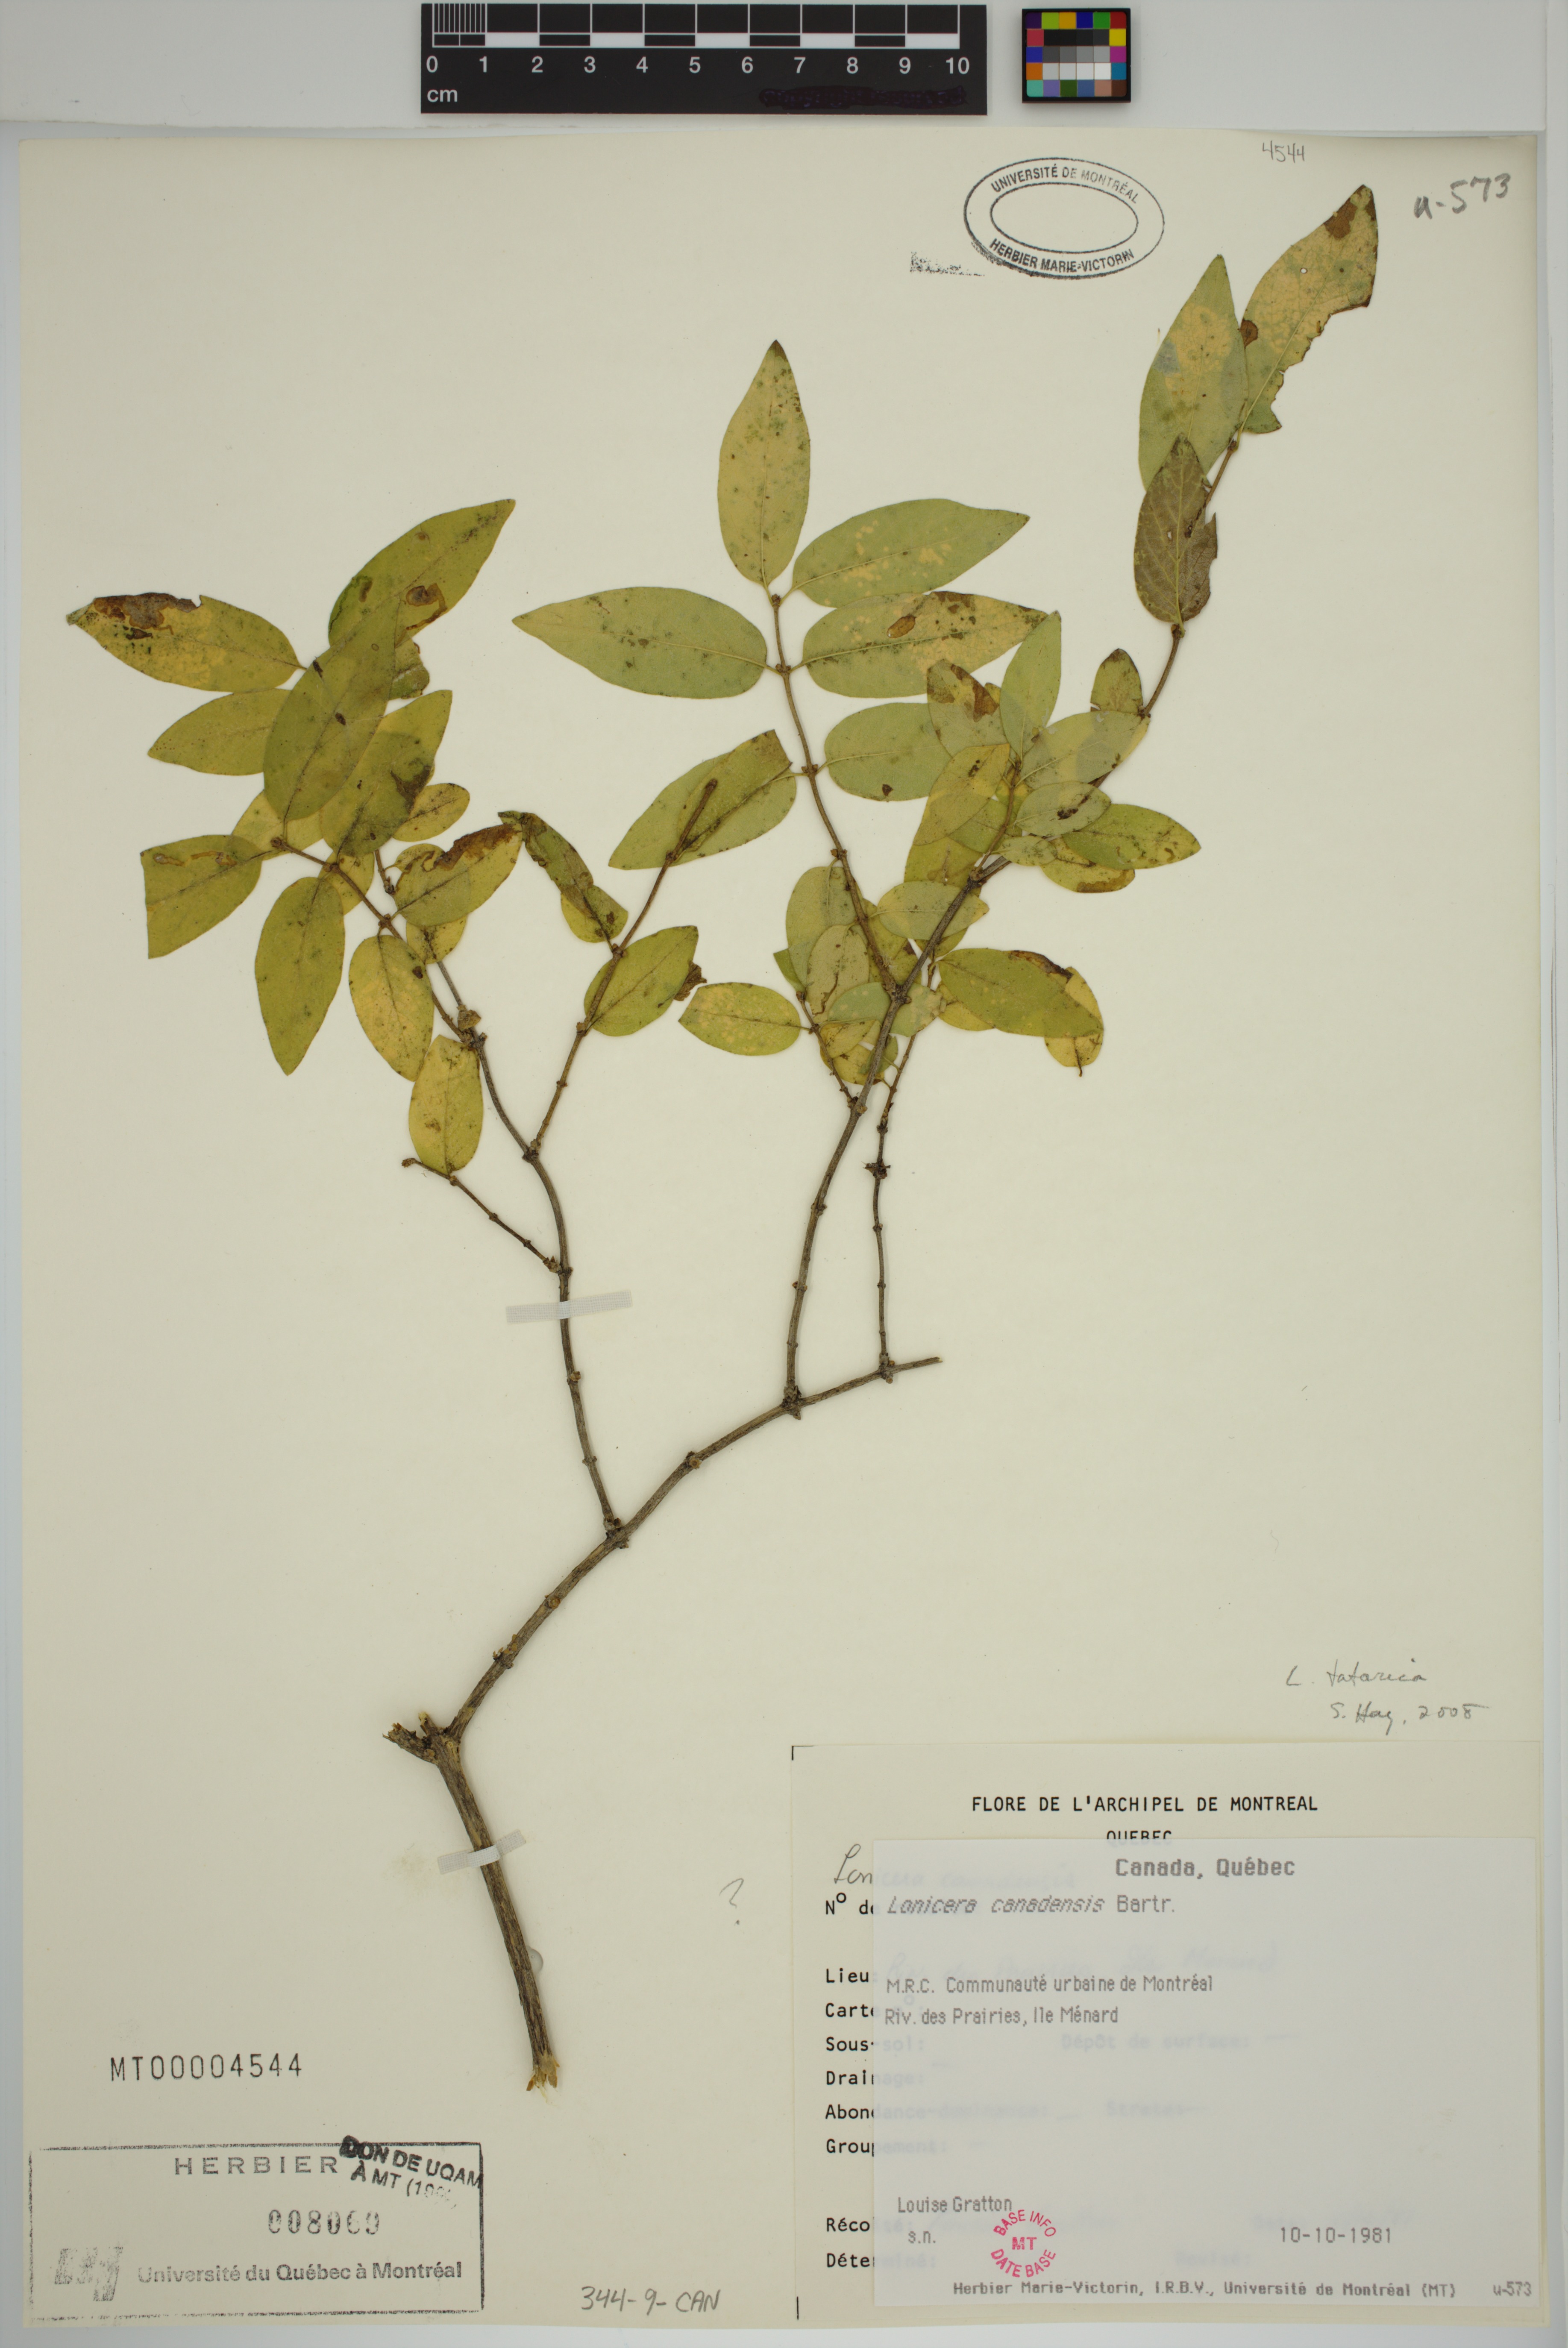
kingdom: Plantae
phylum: Tracheophyta
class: Magnoliopsida
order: Dipsacales
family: Caprifoliaceae
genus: Lonicera
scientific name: Lonicera tatarica
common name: Tatarian honeysuckle
